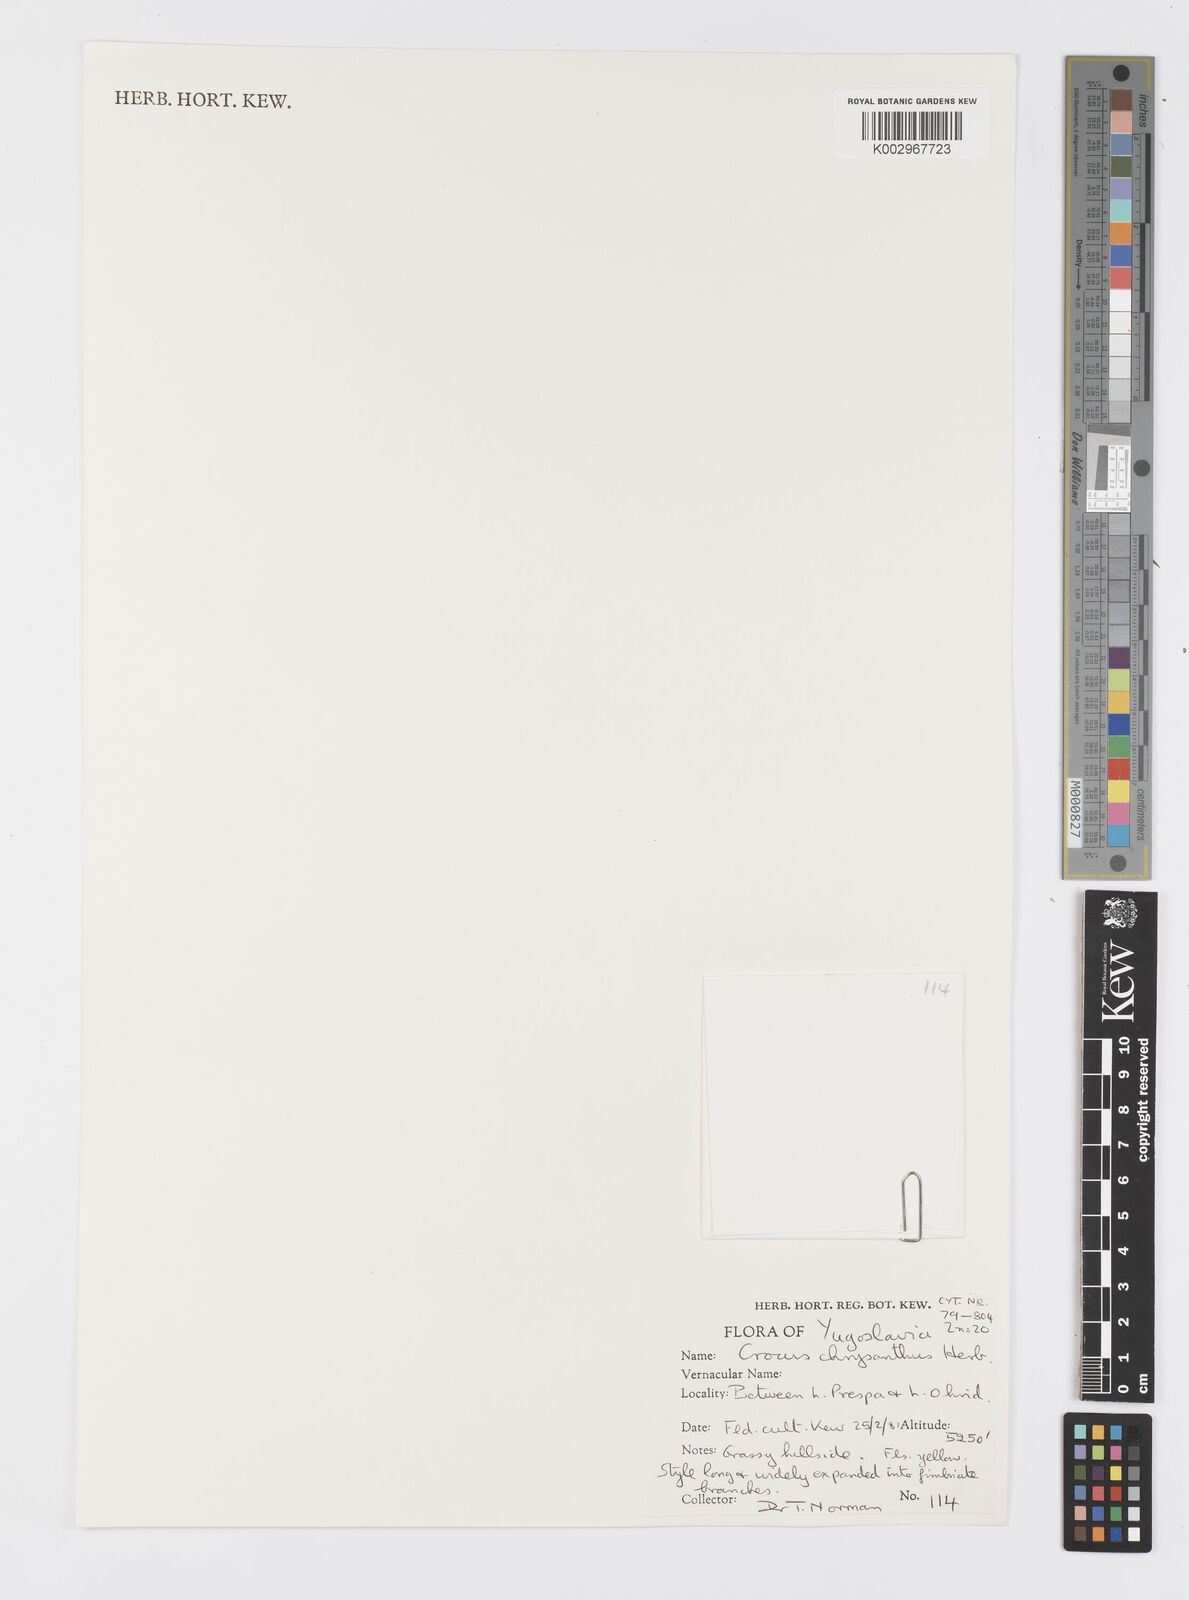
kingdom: Plantae
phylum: Tracheophyta
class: Liliopsida
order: Asparagales
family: Iridaceae
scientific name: Iridaceae
